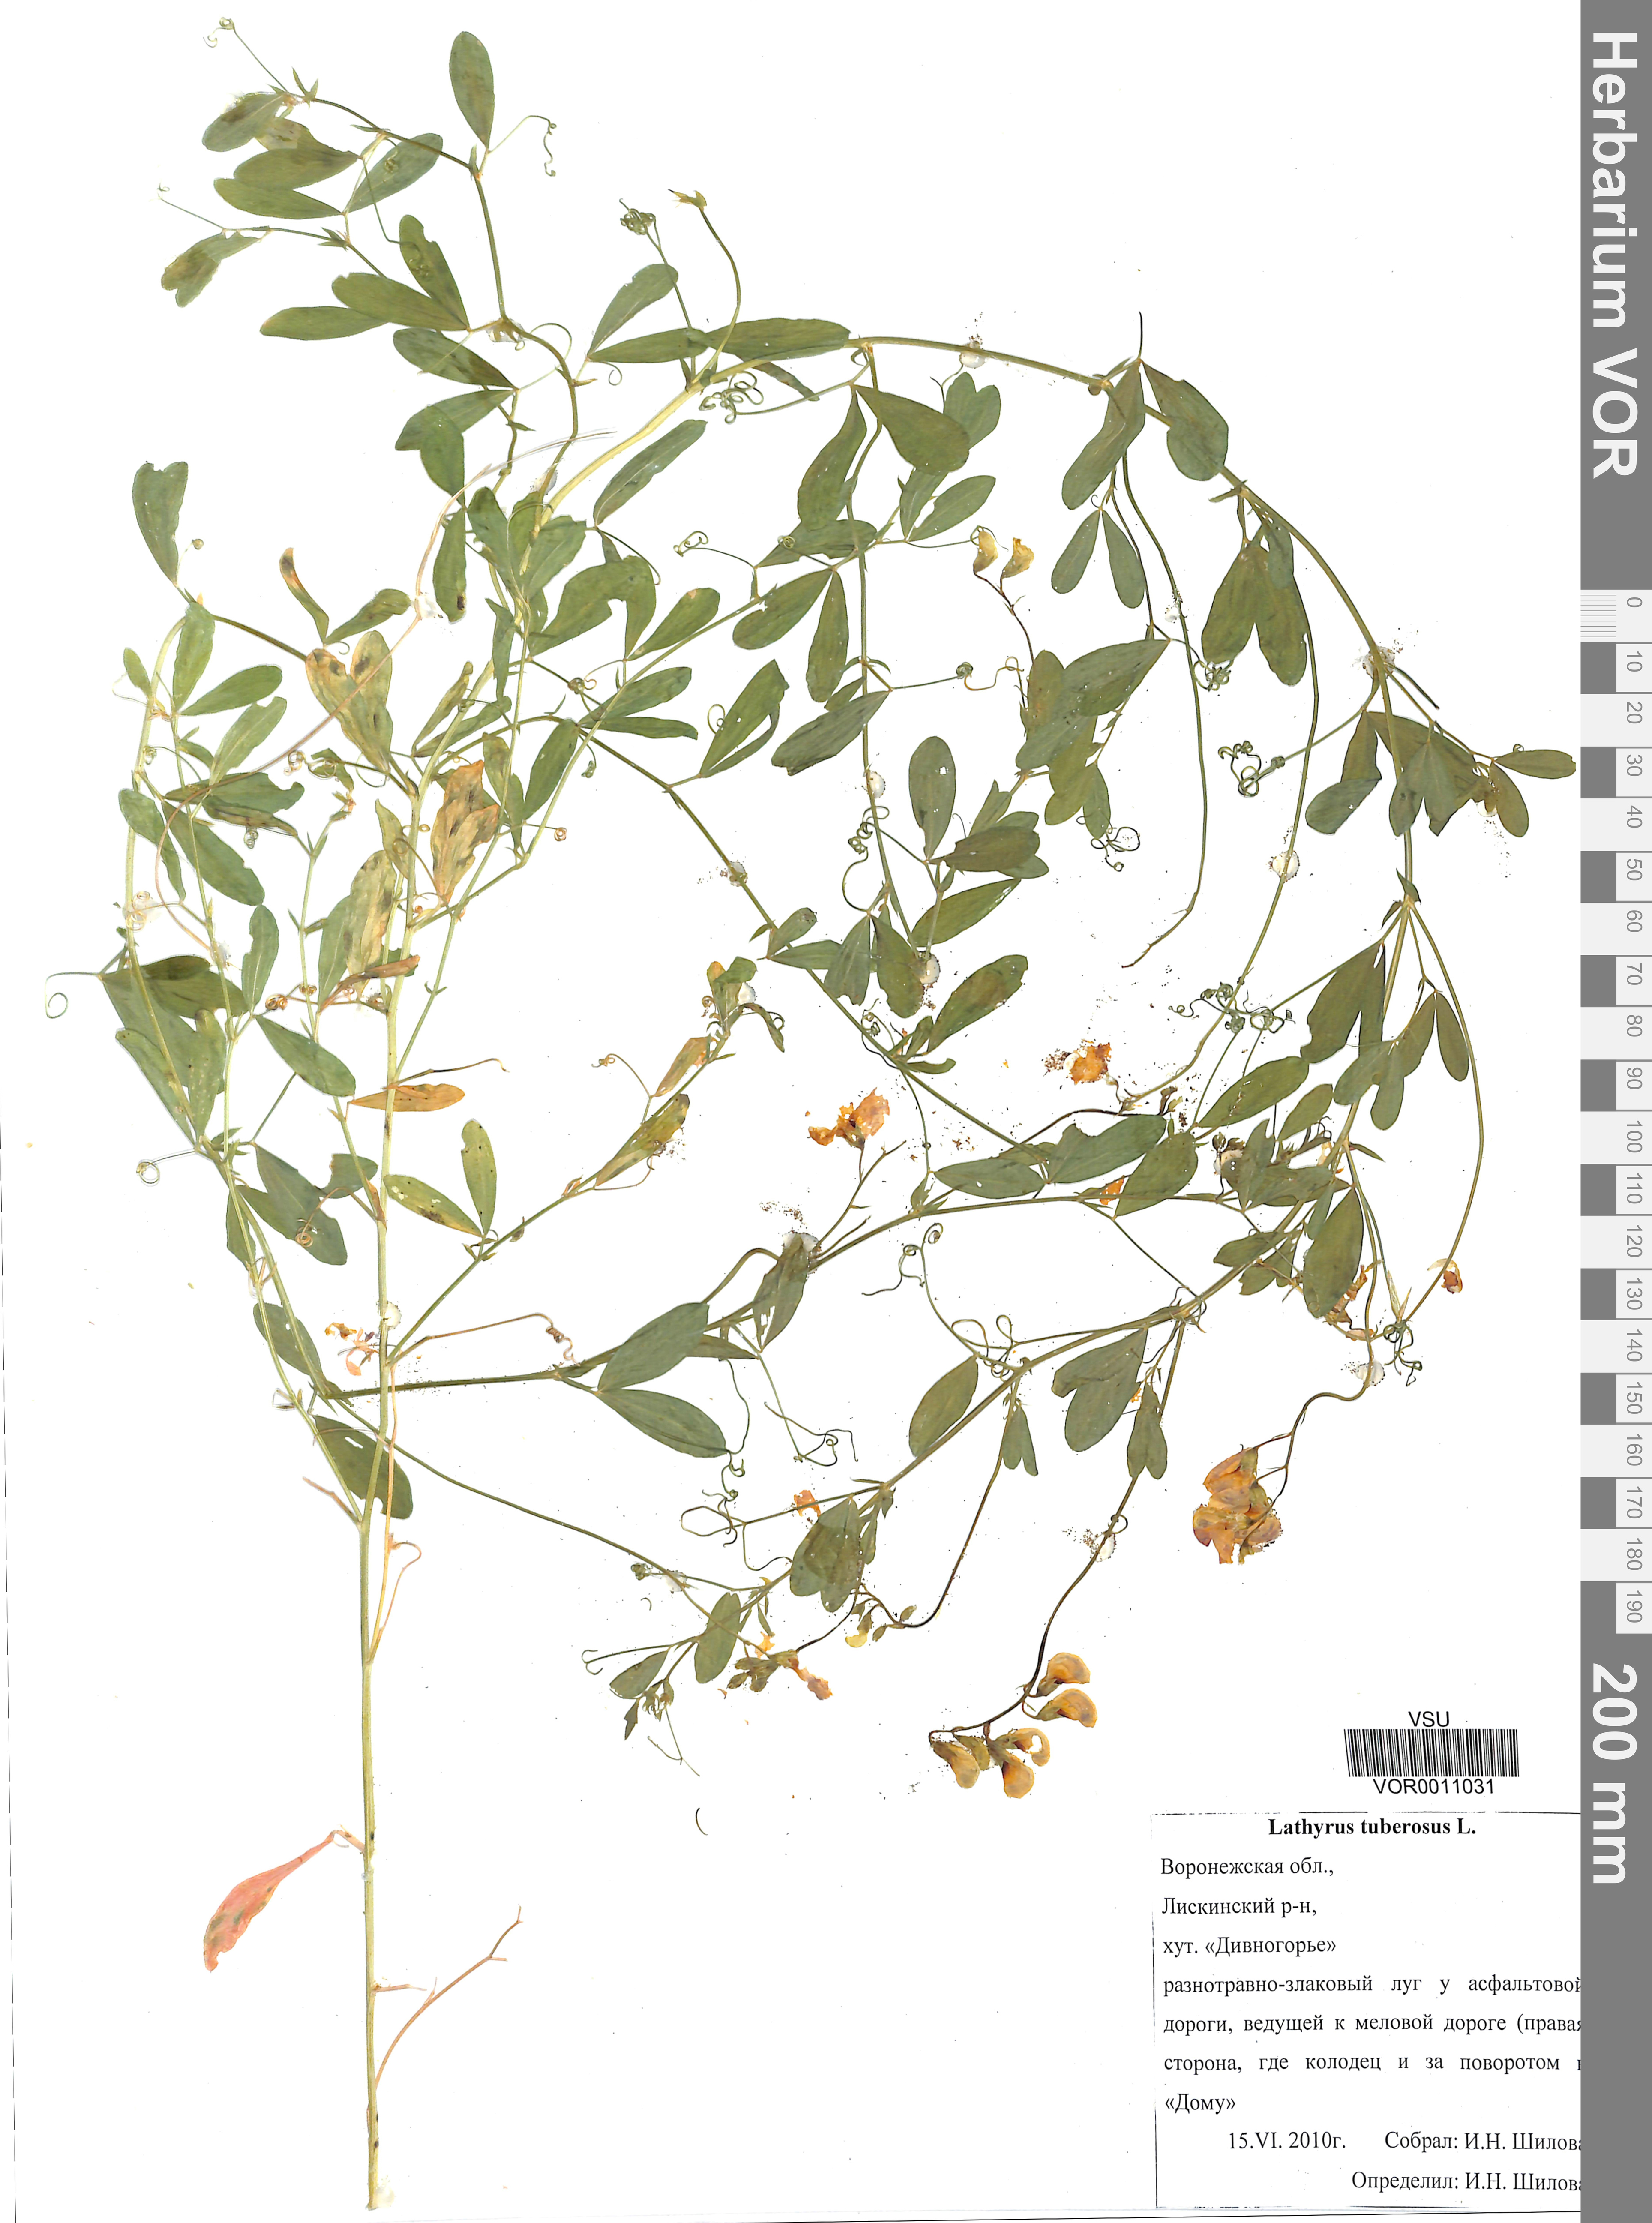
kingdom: Plantae
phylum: Tracheophyta
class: Magnoliopsida
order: Fabales
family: Fabaceae
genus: Lathyrus
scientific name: Lathyrus tuberosus
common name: Tuberous pea
